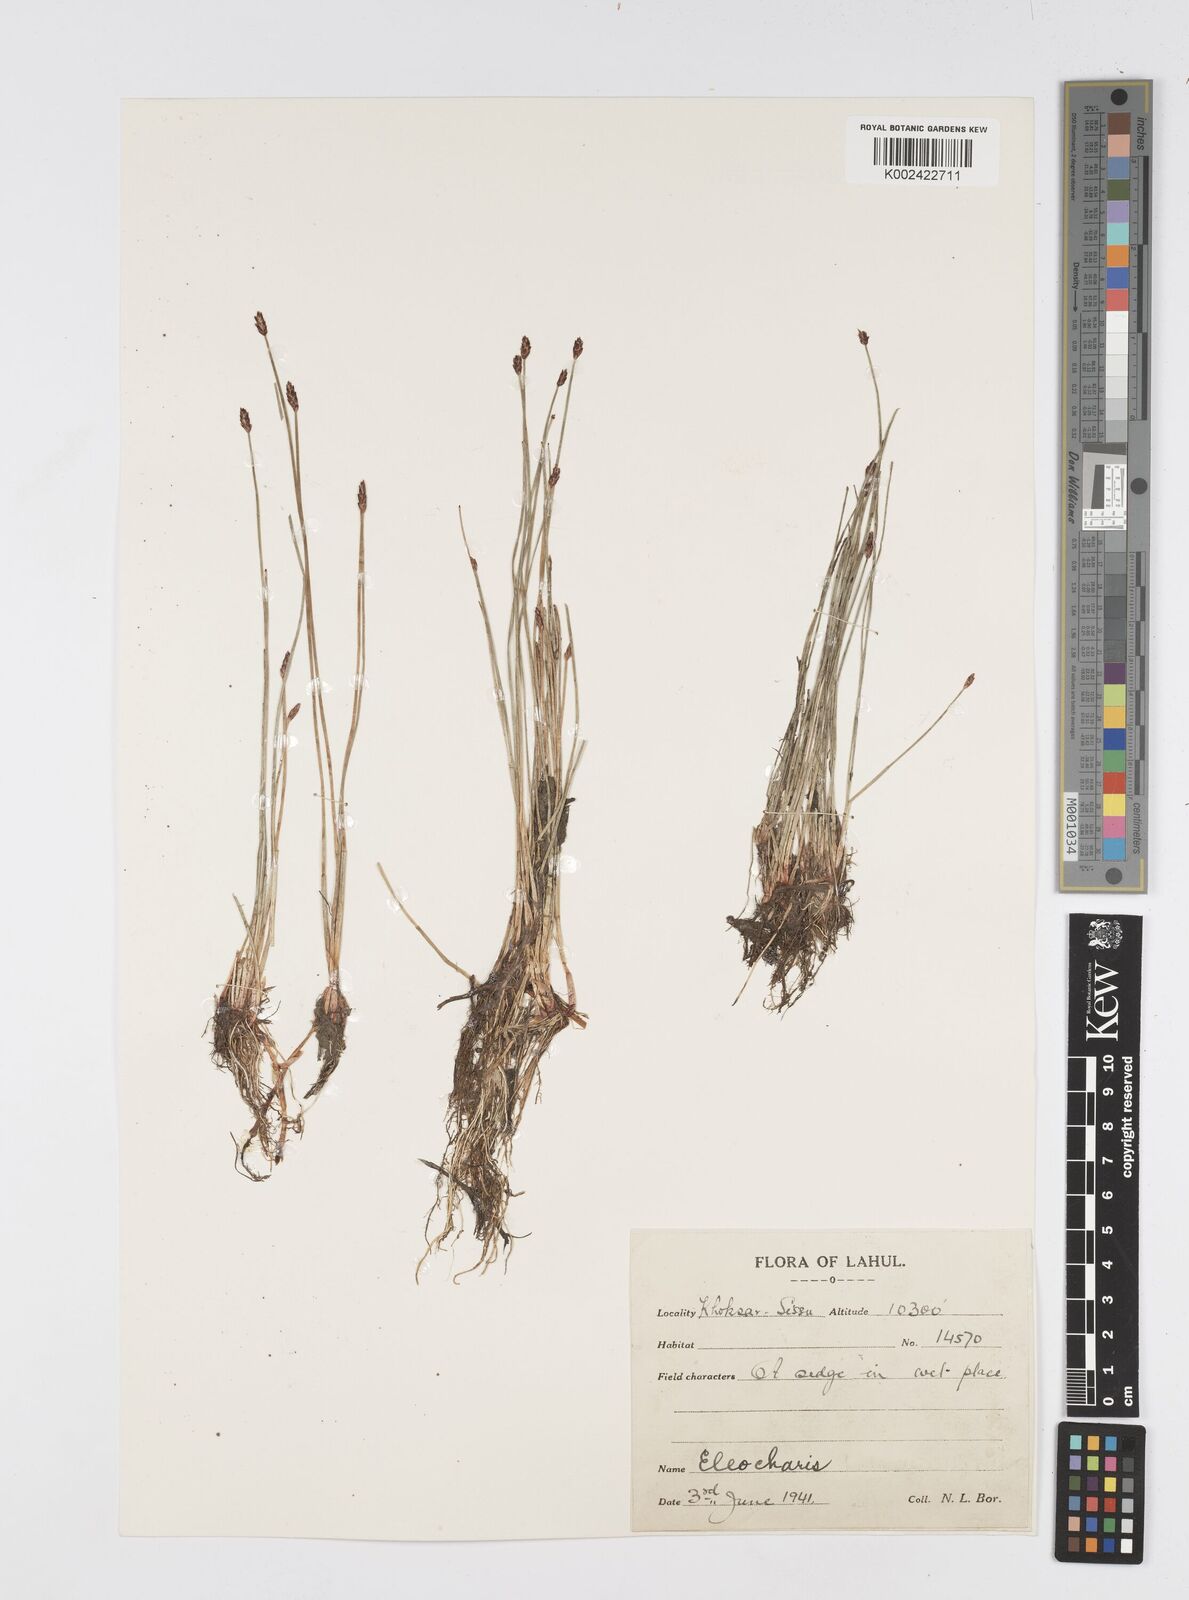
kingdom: Plantae
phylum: Tracheophyta
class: Liliopsida
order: Poales
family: Cyperaceae
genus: Eleocharis
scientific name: Eleocharis
